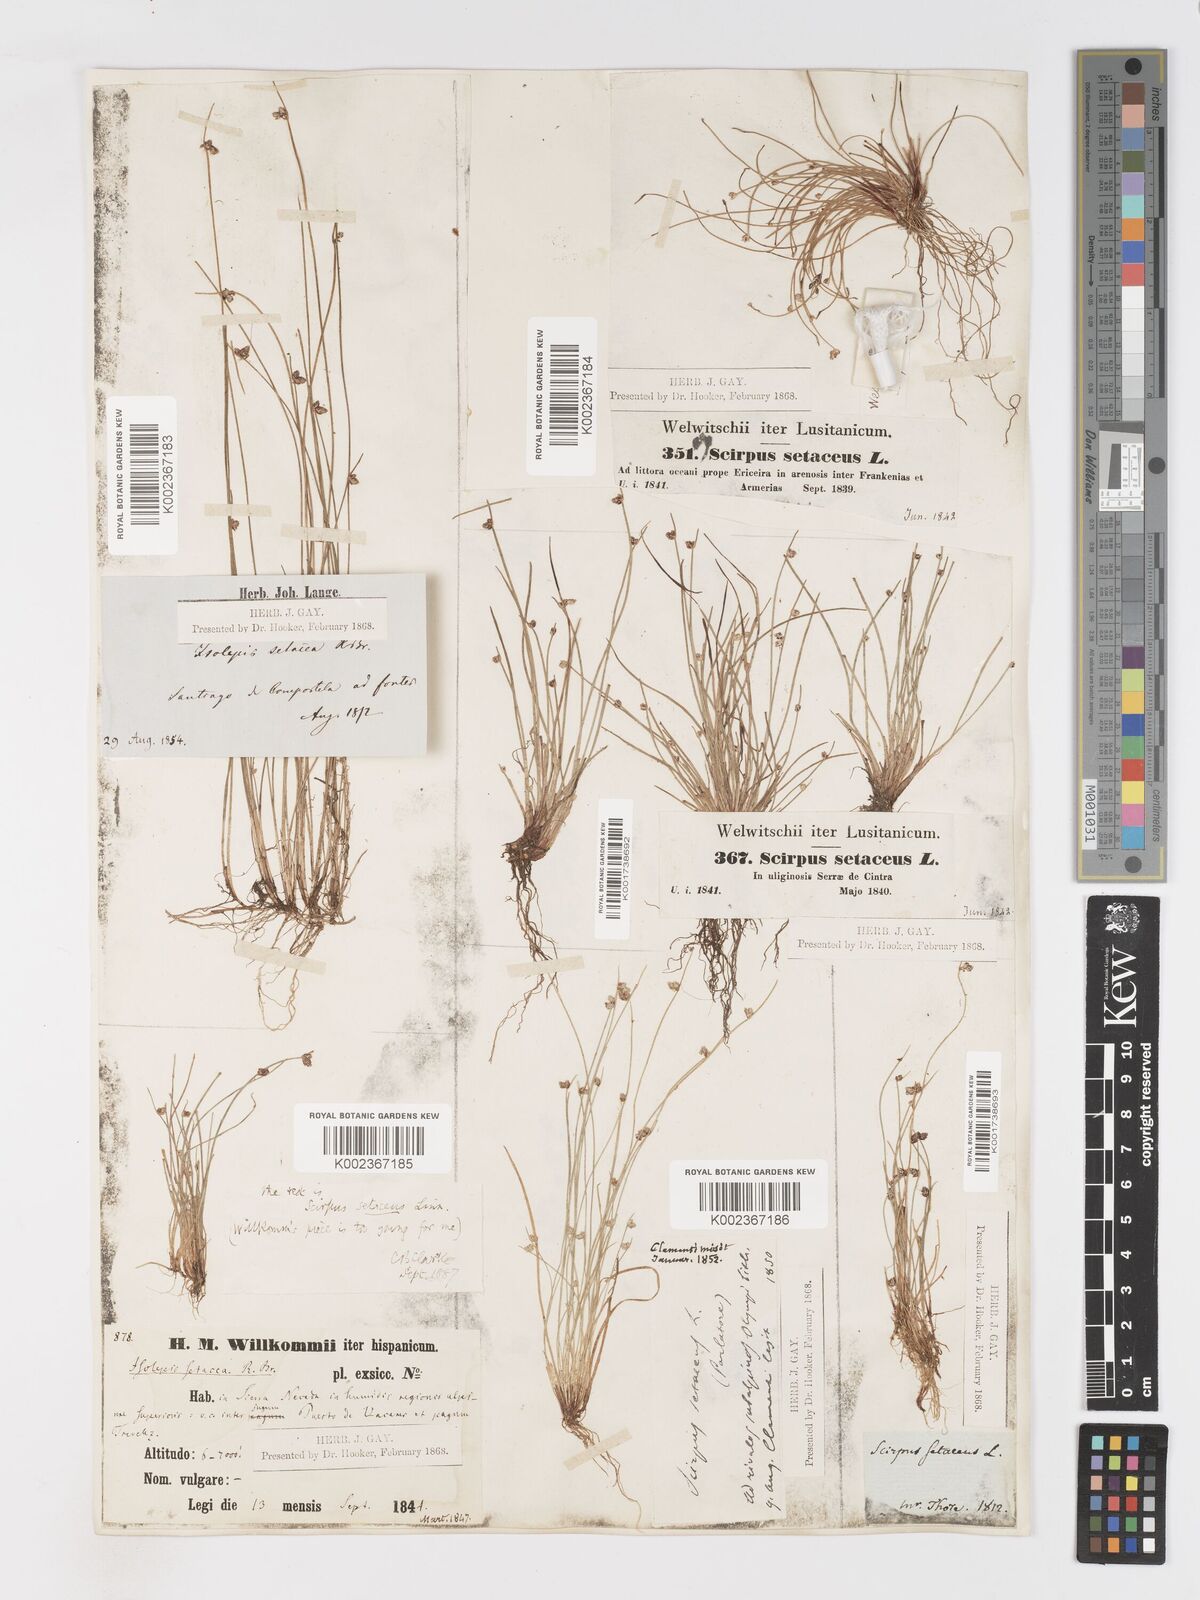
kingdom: Plantae
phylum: Tracheophyta
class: Liliopsida
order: Poales
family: Cyperaceae
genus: Isolepis
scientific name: Isolepis setacea
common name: Bristle club-rush
